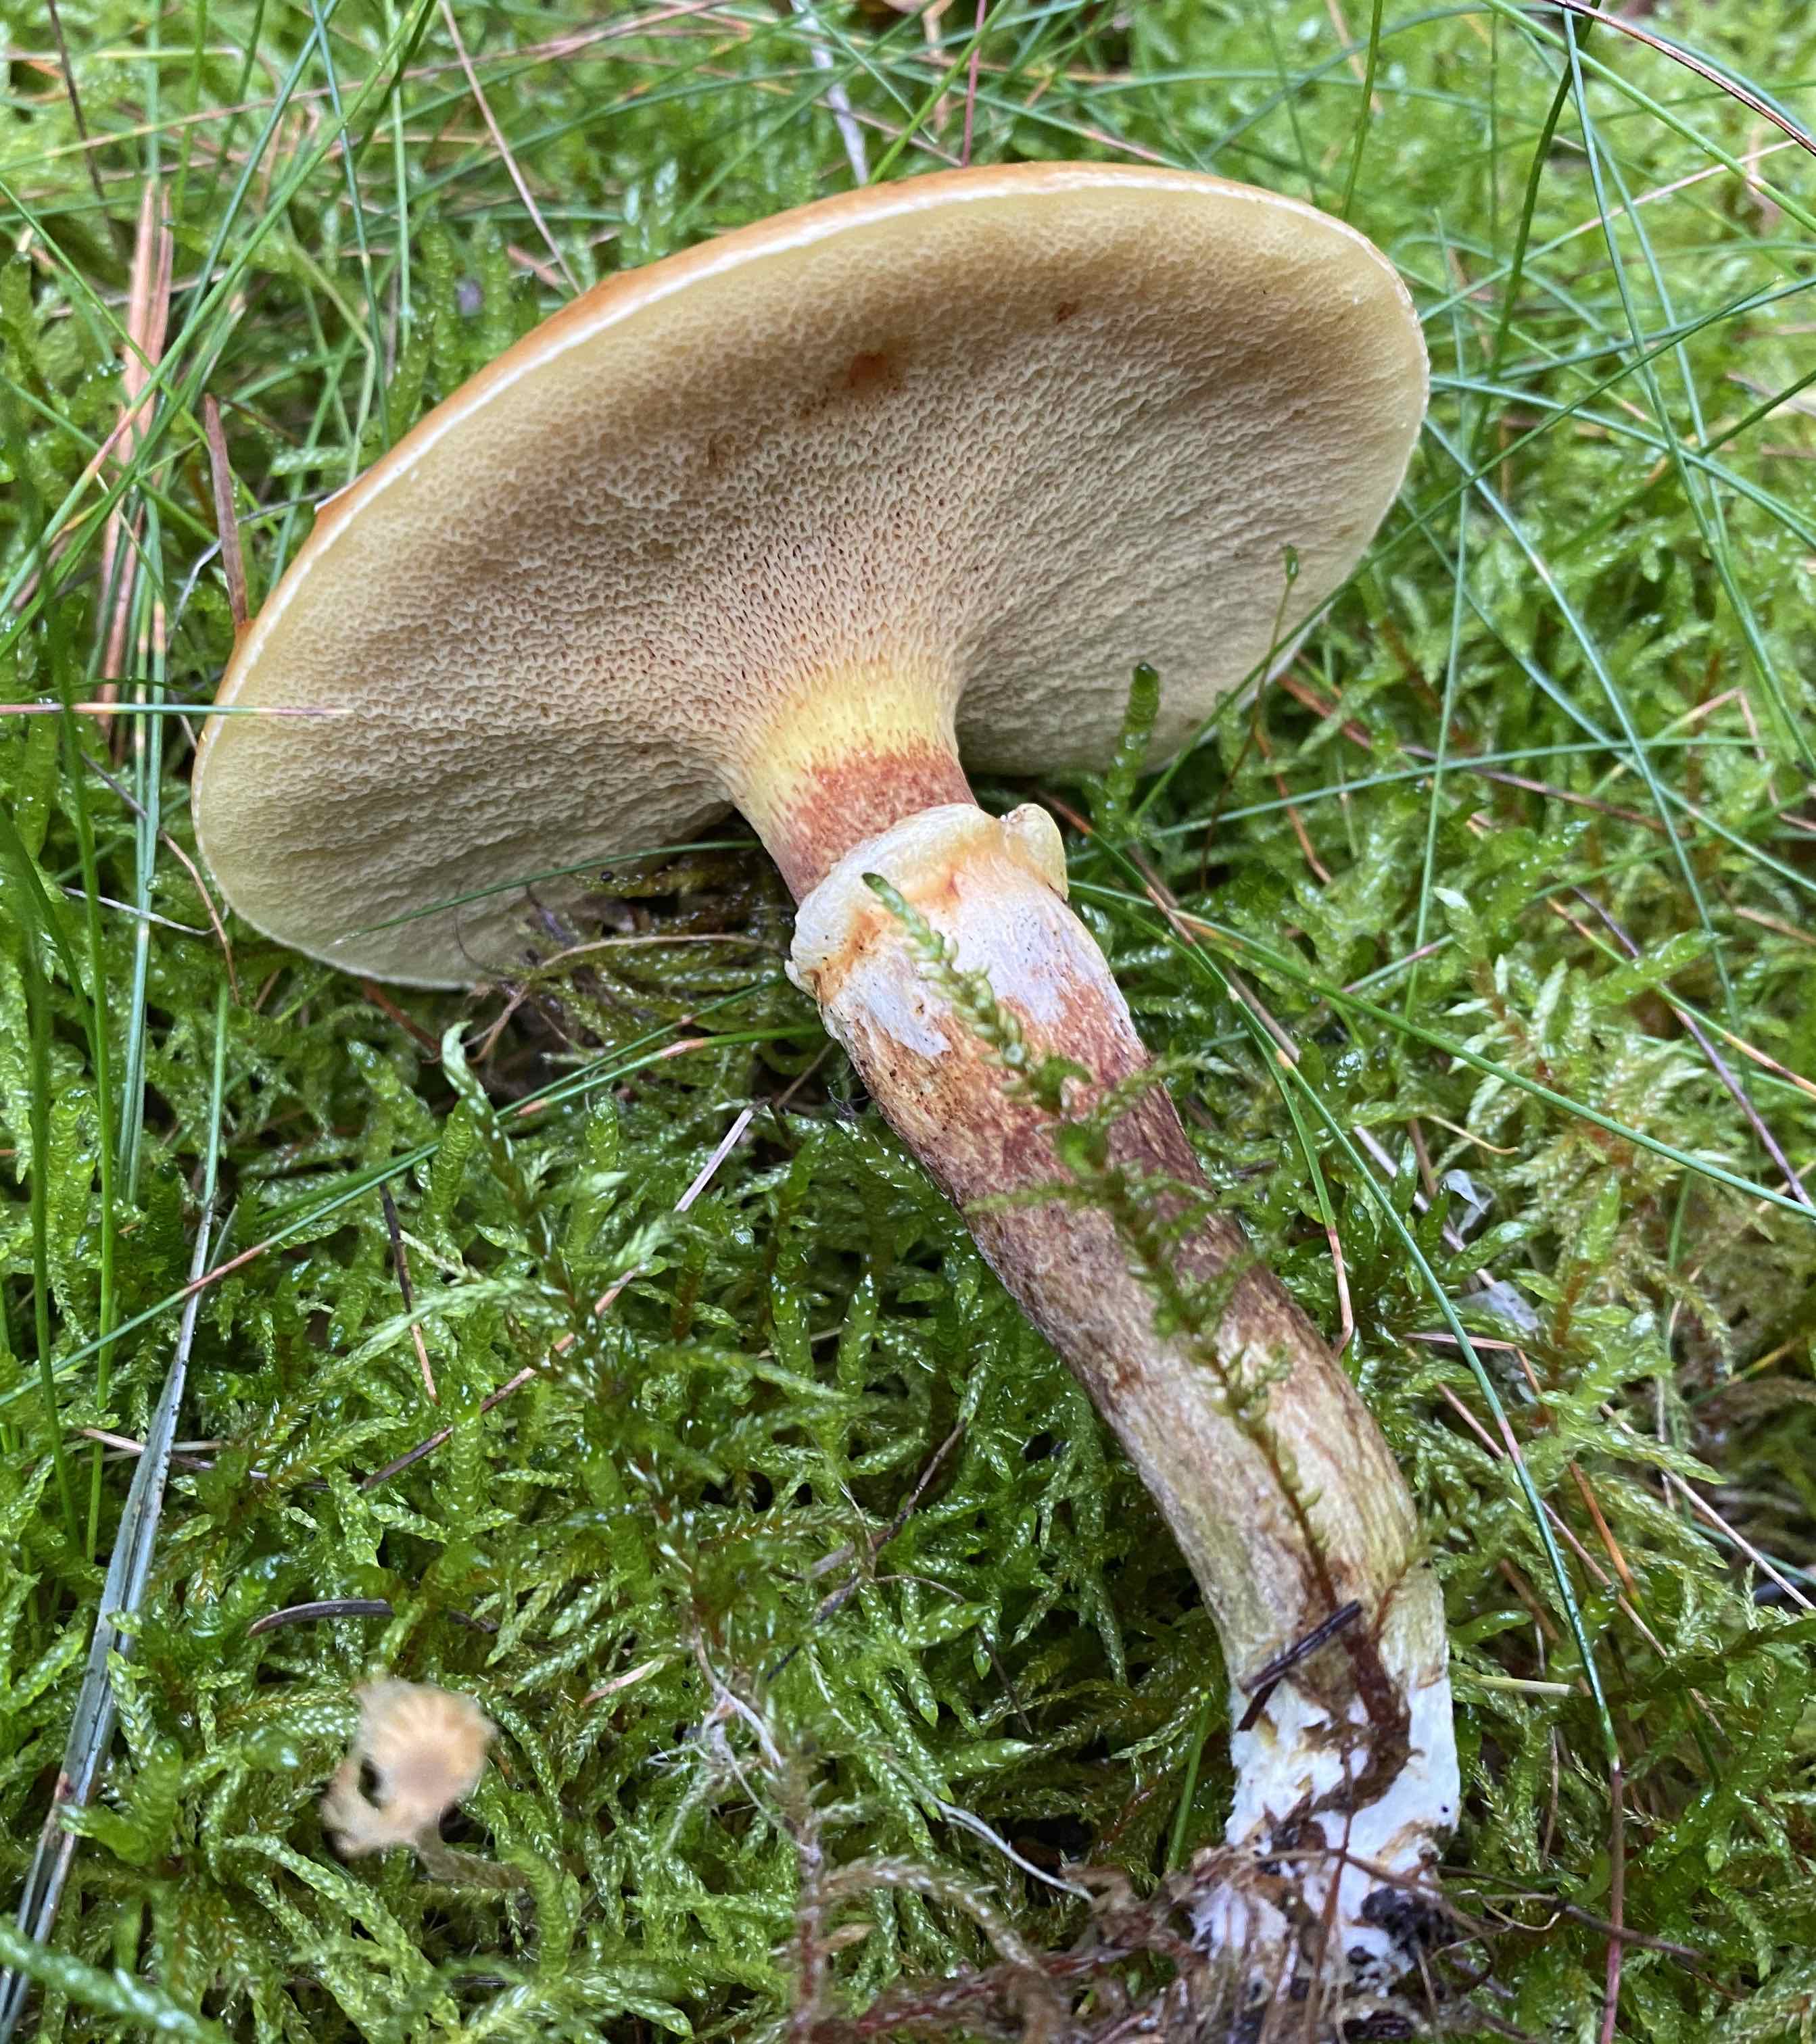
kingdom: Fungi
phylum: Basidiomycota
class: Agaricomycetes
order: Boletales
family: Suillaceae
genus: Suillus
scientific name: Suillus grevillei
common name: lærke-slimrørhat
